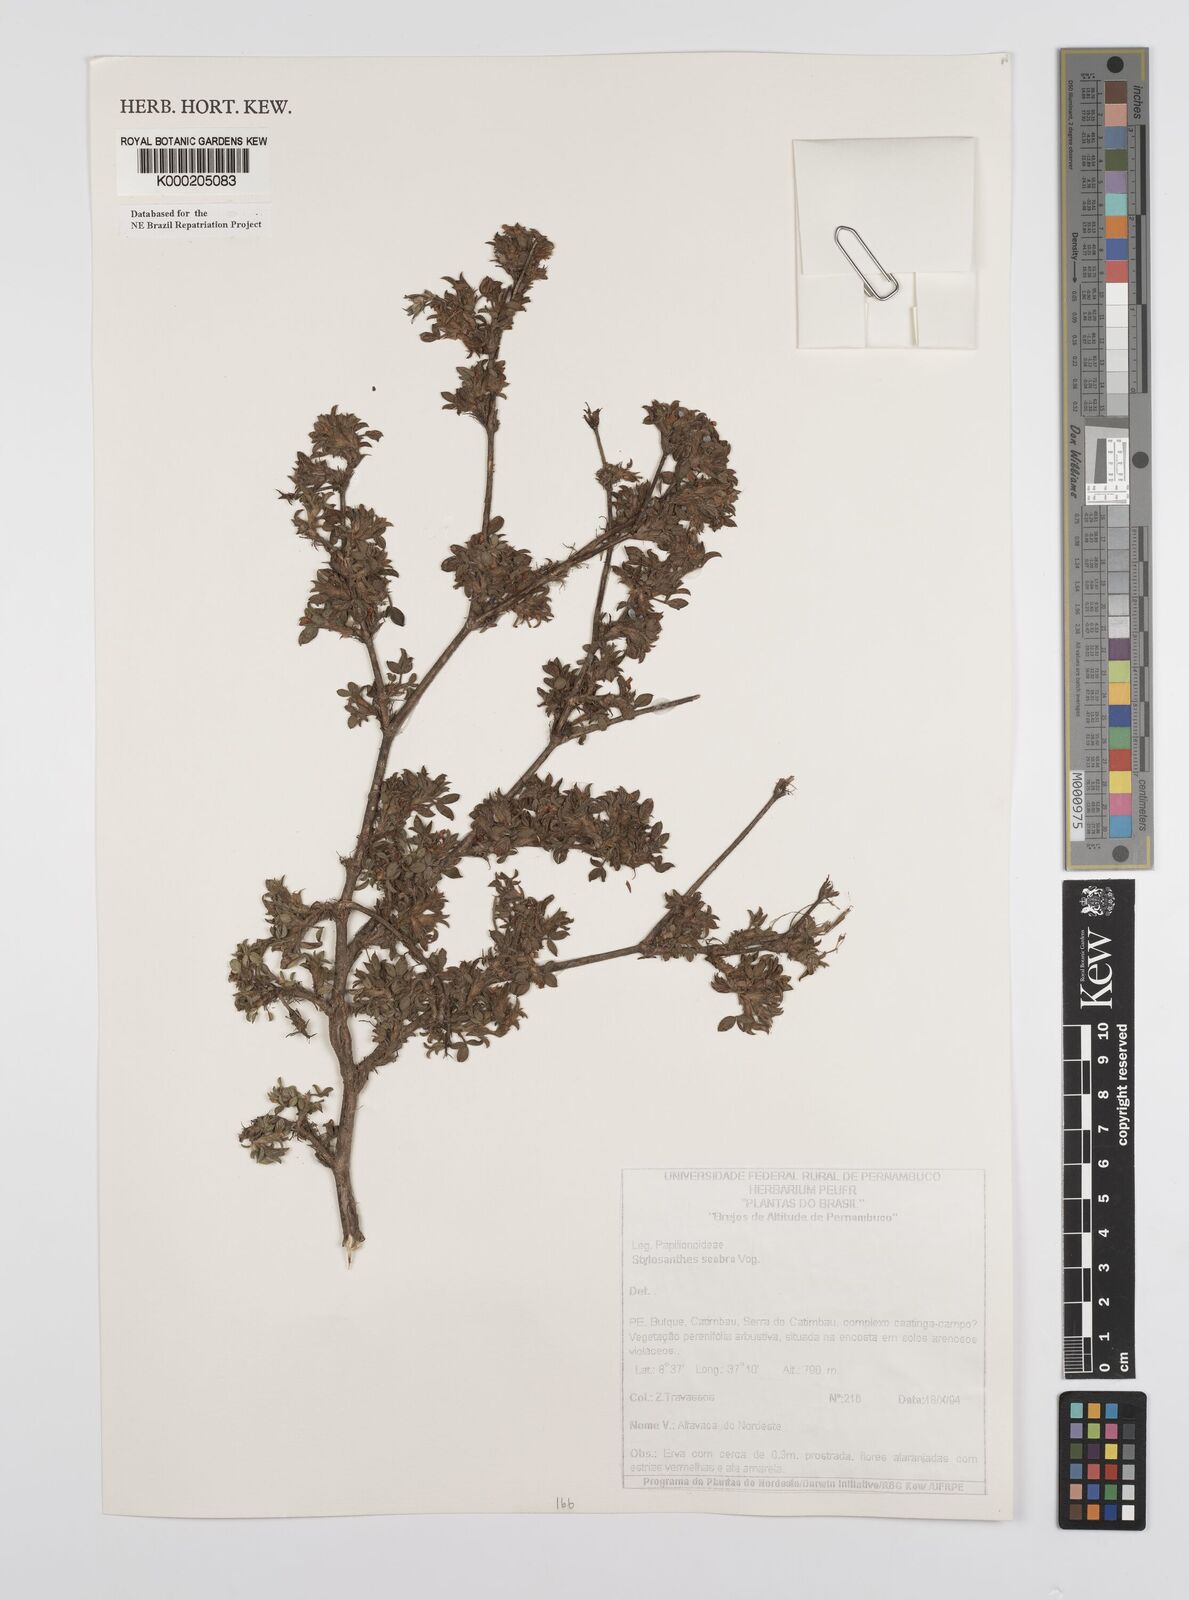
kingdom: Plantae
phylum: Tracheophyta
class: Magnoliopsida
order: Fabales
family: Fabaceae
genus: Stylosanthes
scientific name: Stylosanthes scabra
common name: Pencilflower
